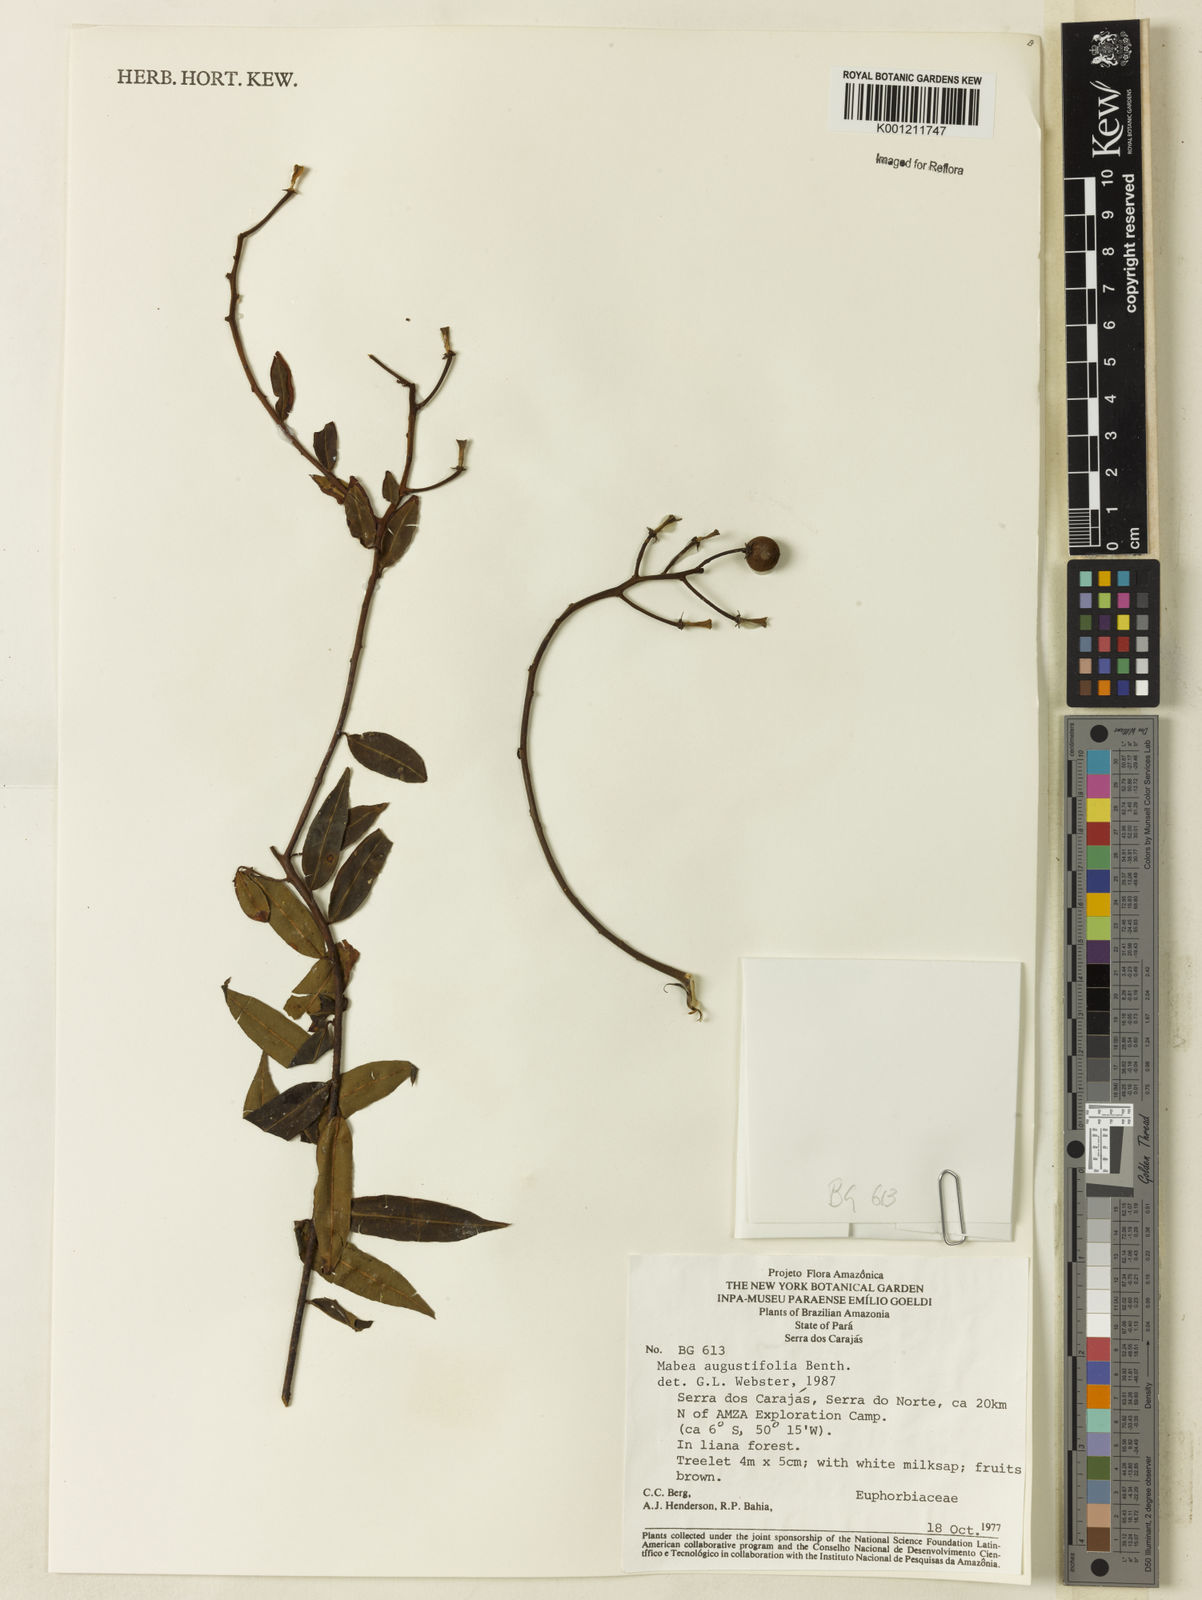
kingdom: Plantae
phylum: Tracheophyta
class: Magnoliopsida
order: Malpighiales
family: Euphorbiaceae
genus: Mabea
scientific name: Mabea angustifolia
